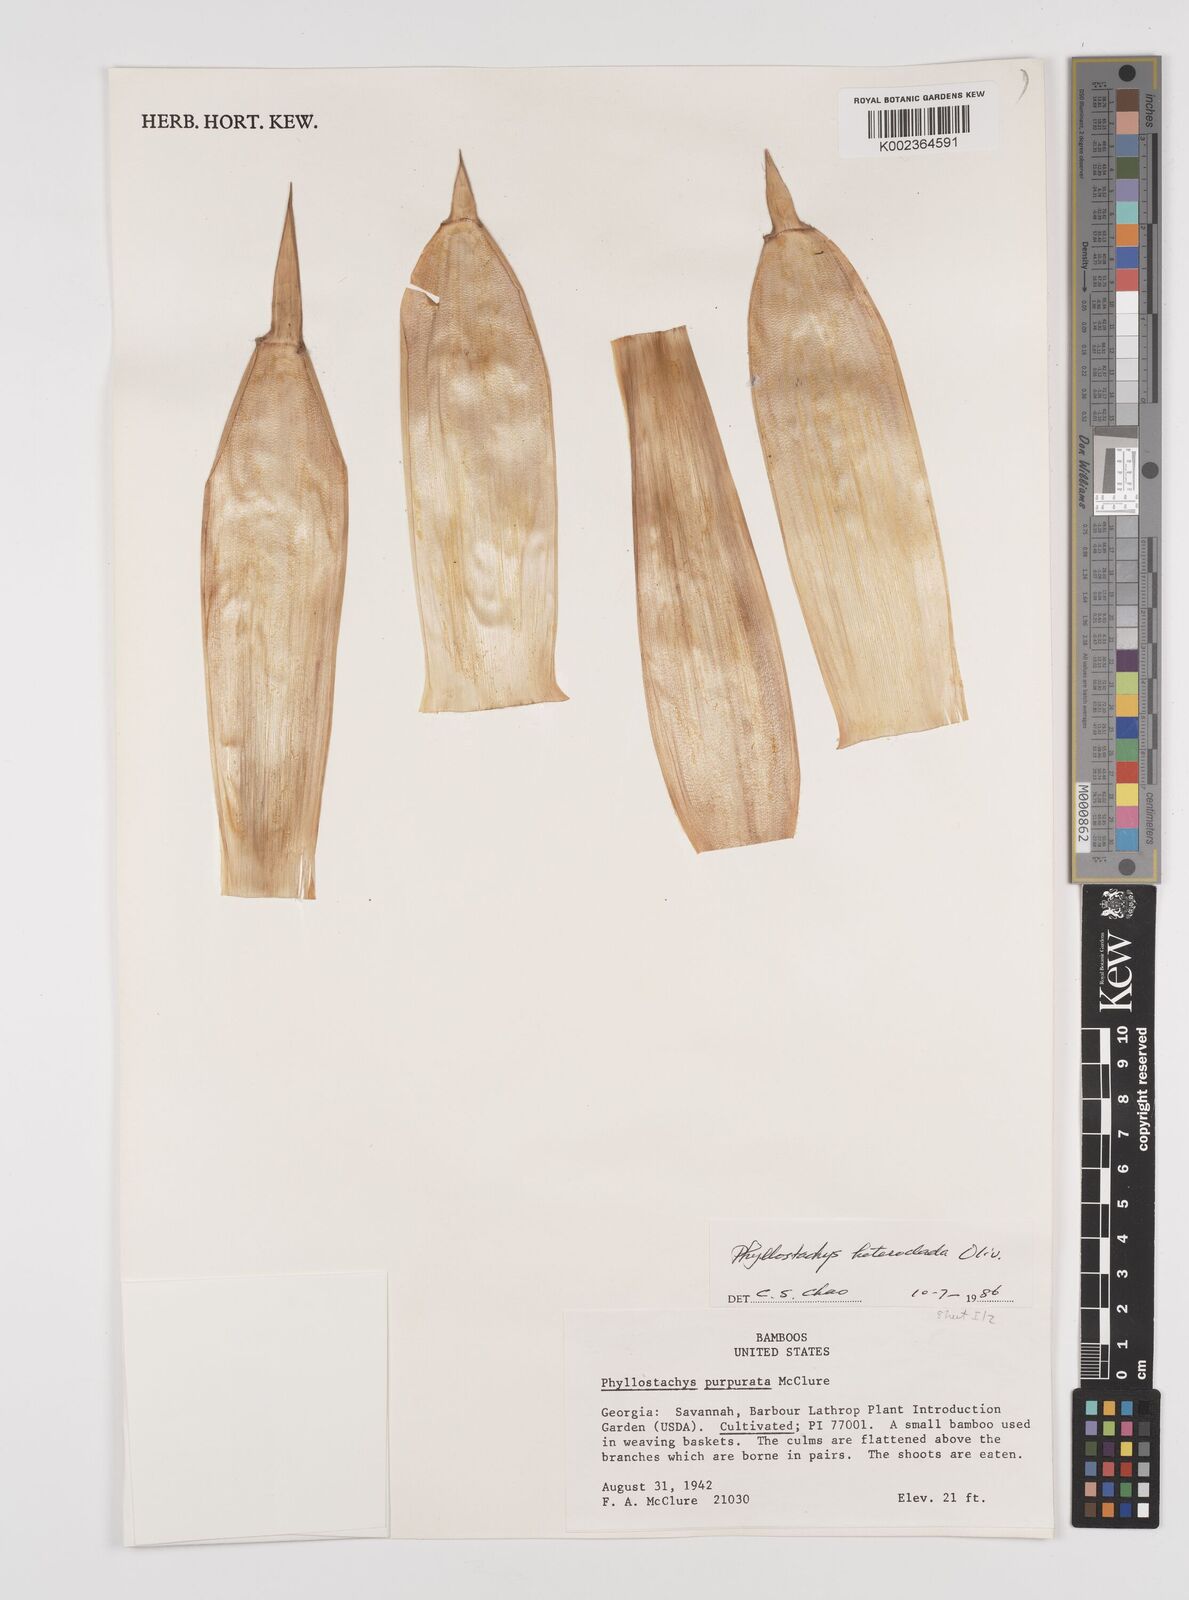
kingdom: Plantae
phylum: Tracheophyta
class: Liliopsida
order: Poales
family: Poaceae
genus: Phyllostachys
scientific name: Phyllostachys heteroclada
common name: Fishscale bamboo
